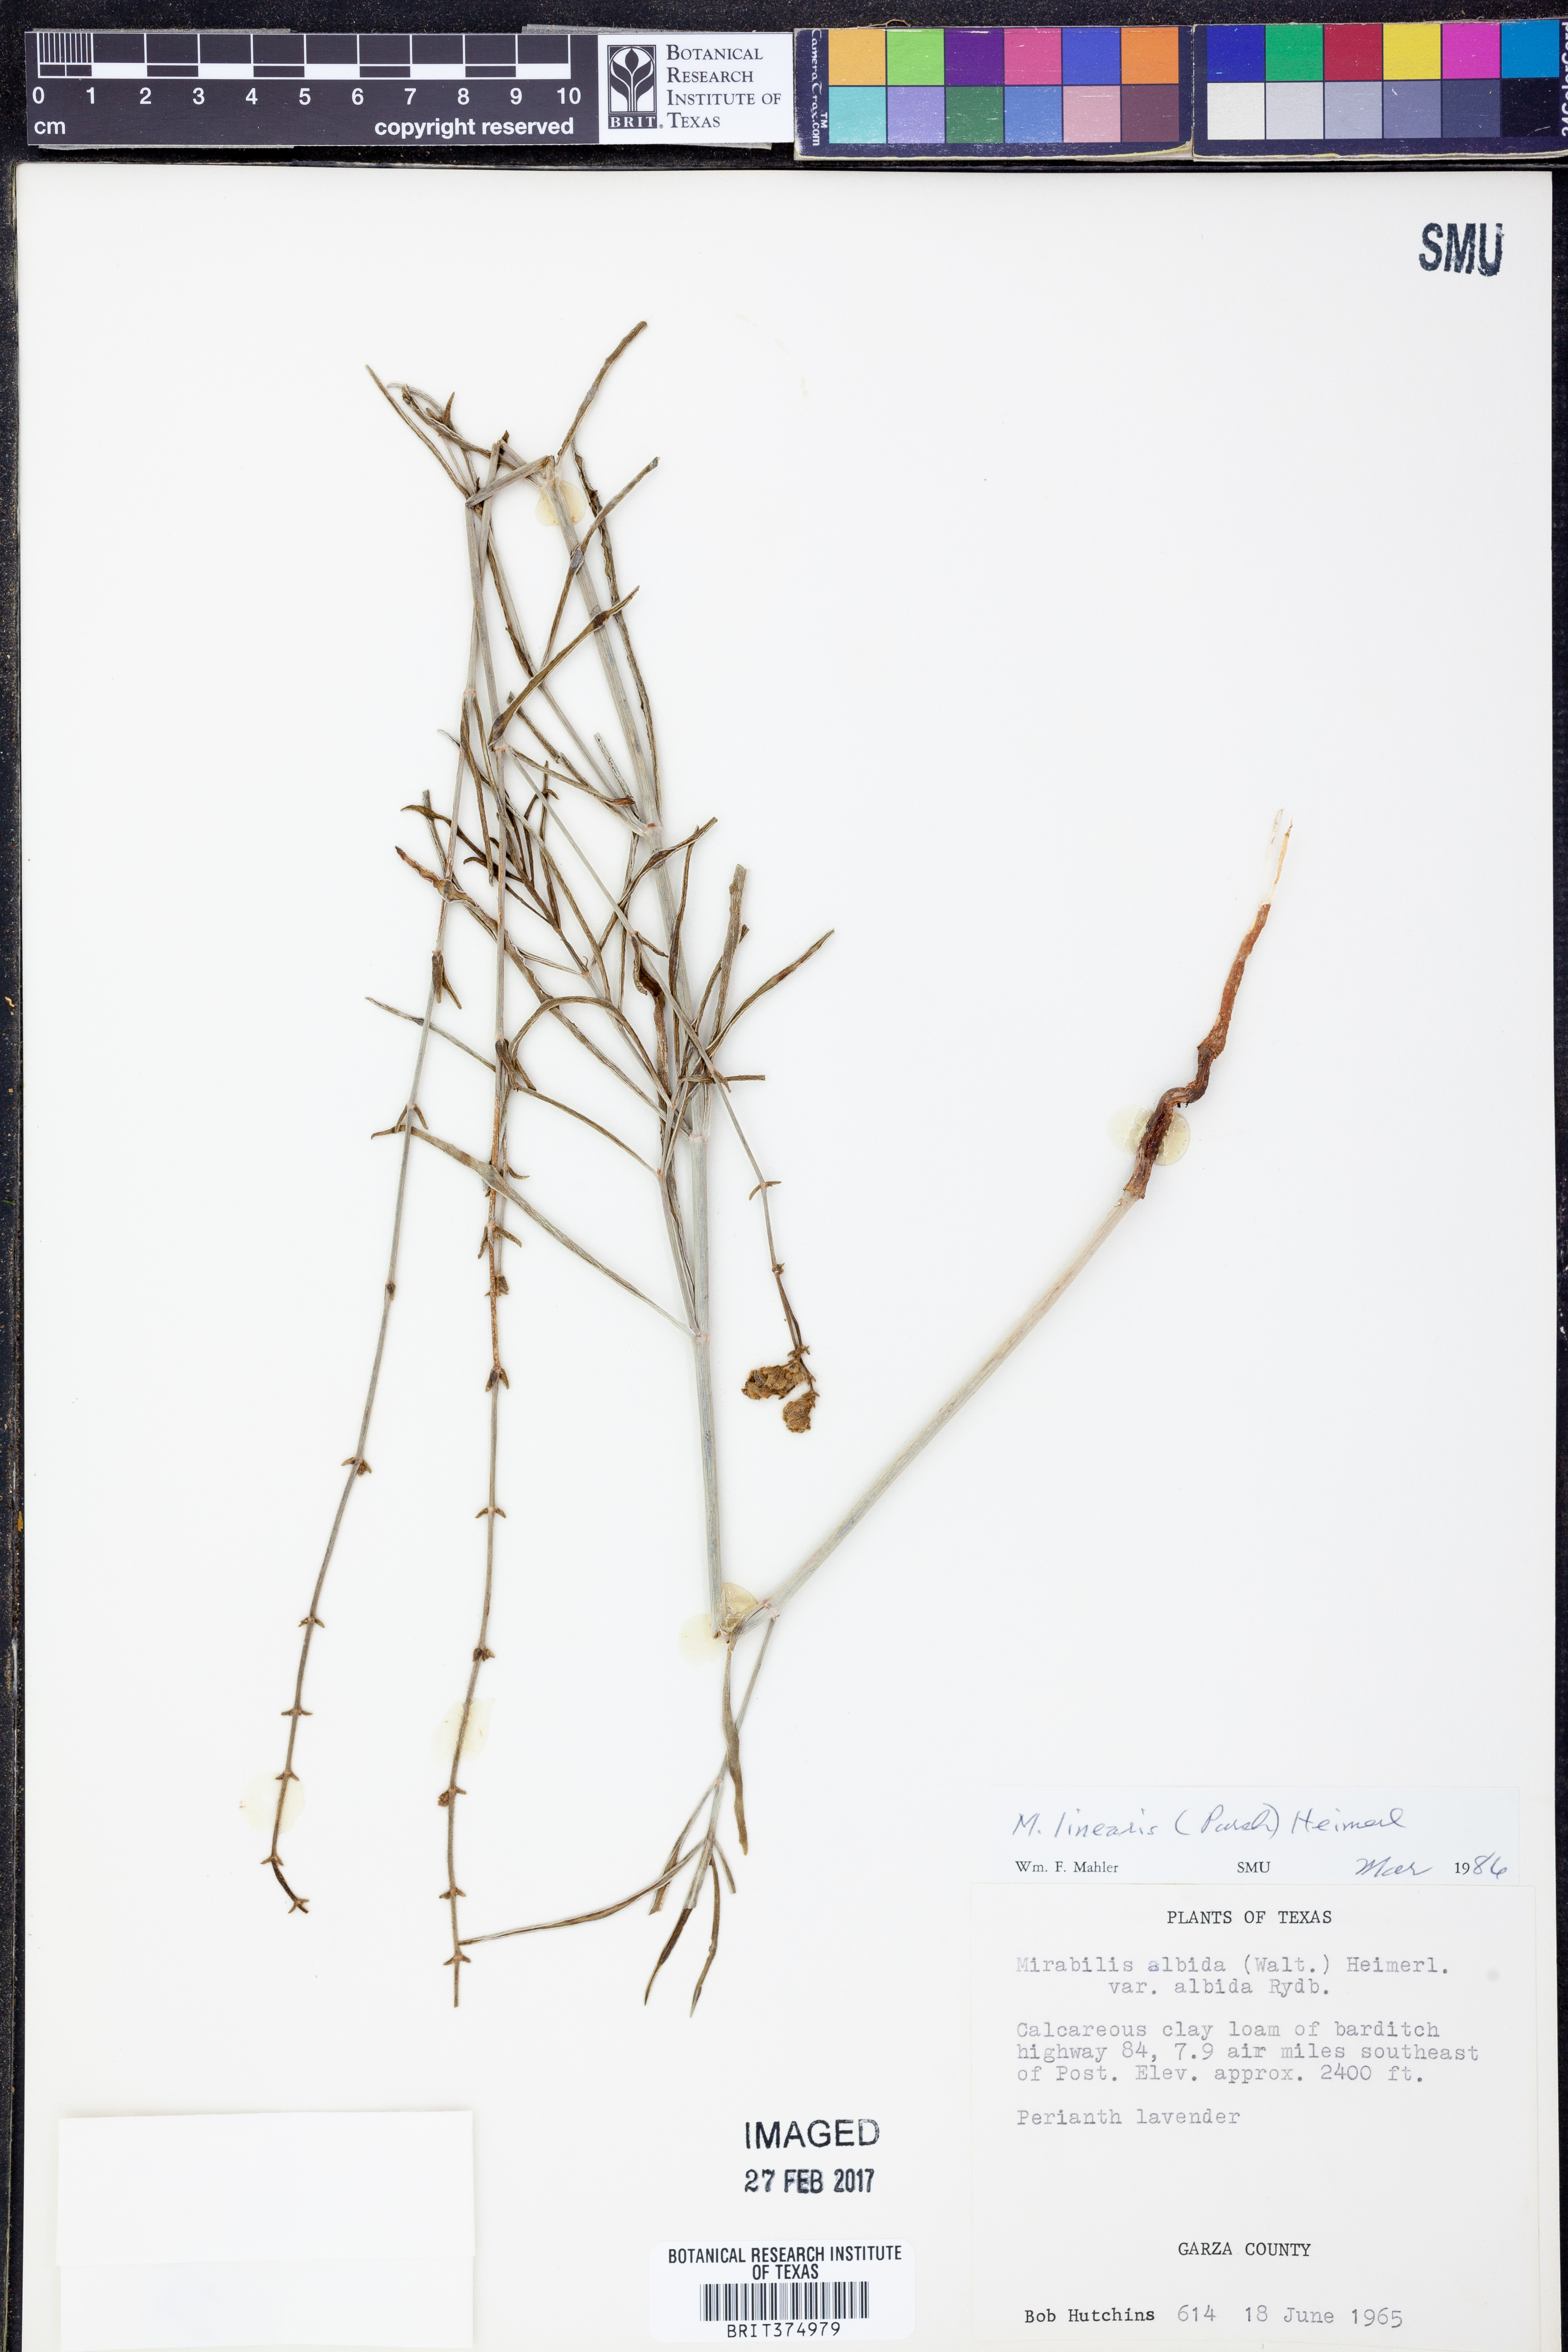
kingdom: Plantae
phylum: Tracheophyta
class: Magnoliopsida
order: Caryophyllales
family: Nyctaginaceae
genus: Mirabilis
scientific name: Mirabilis linearis
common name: Linear-leaved four-o'clock
